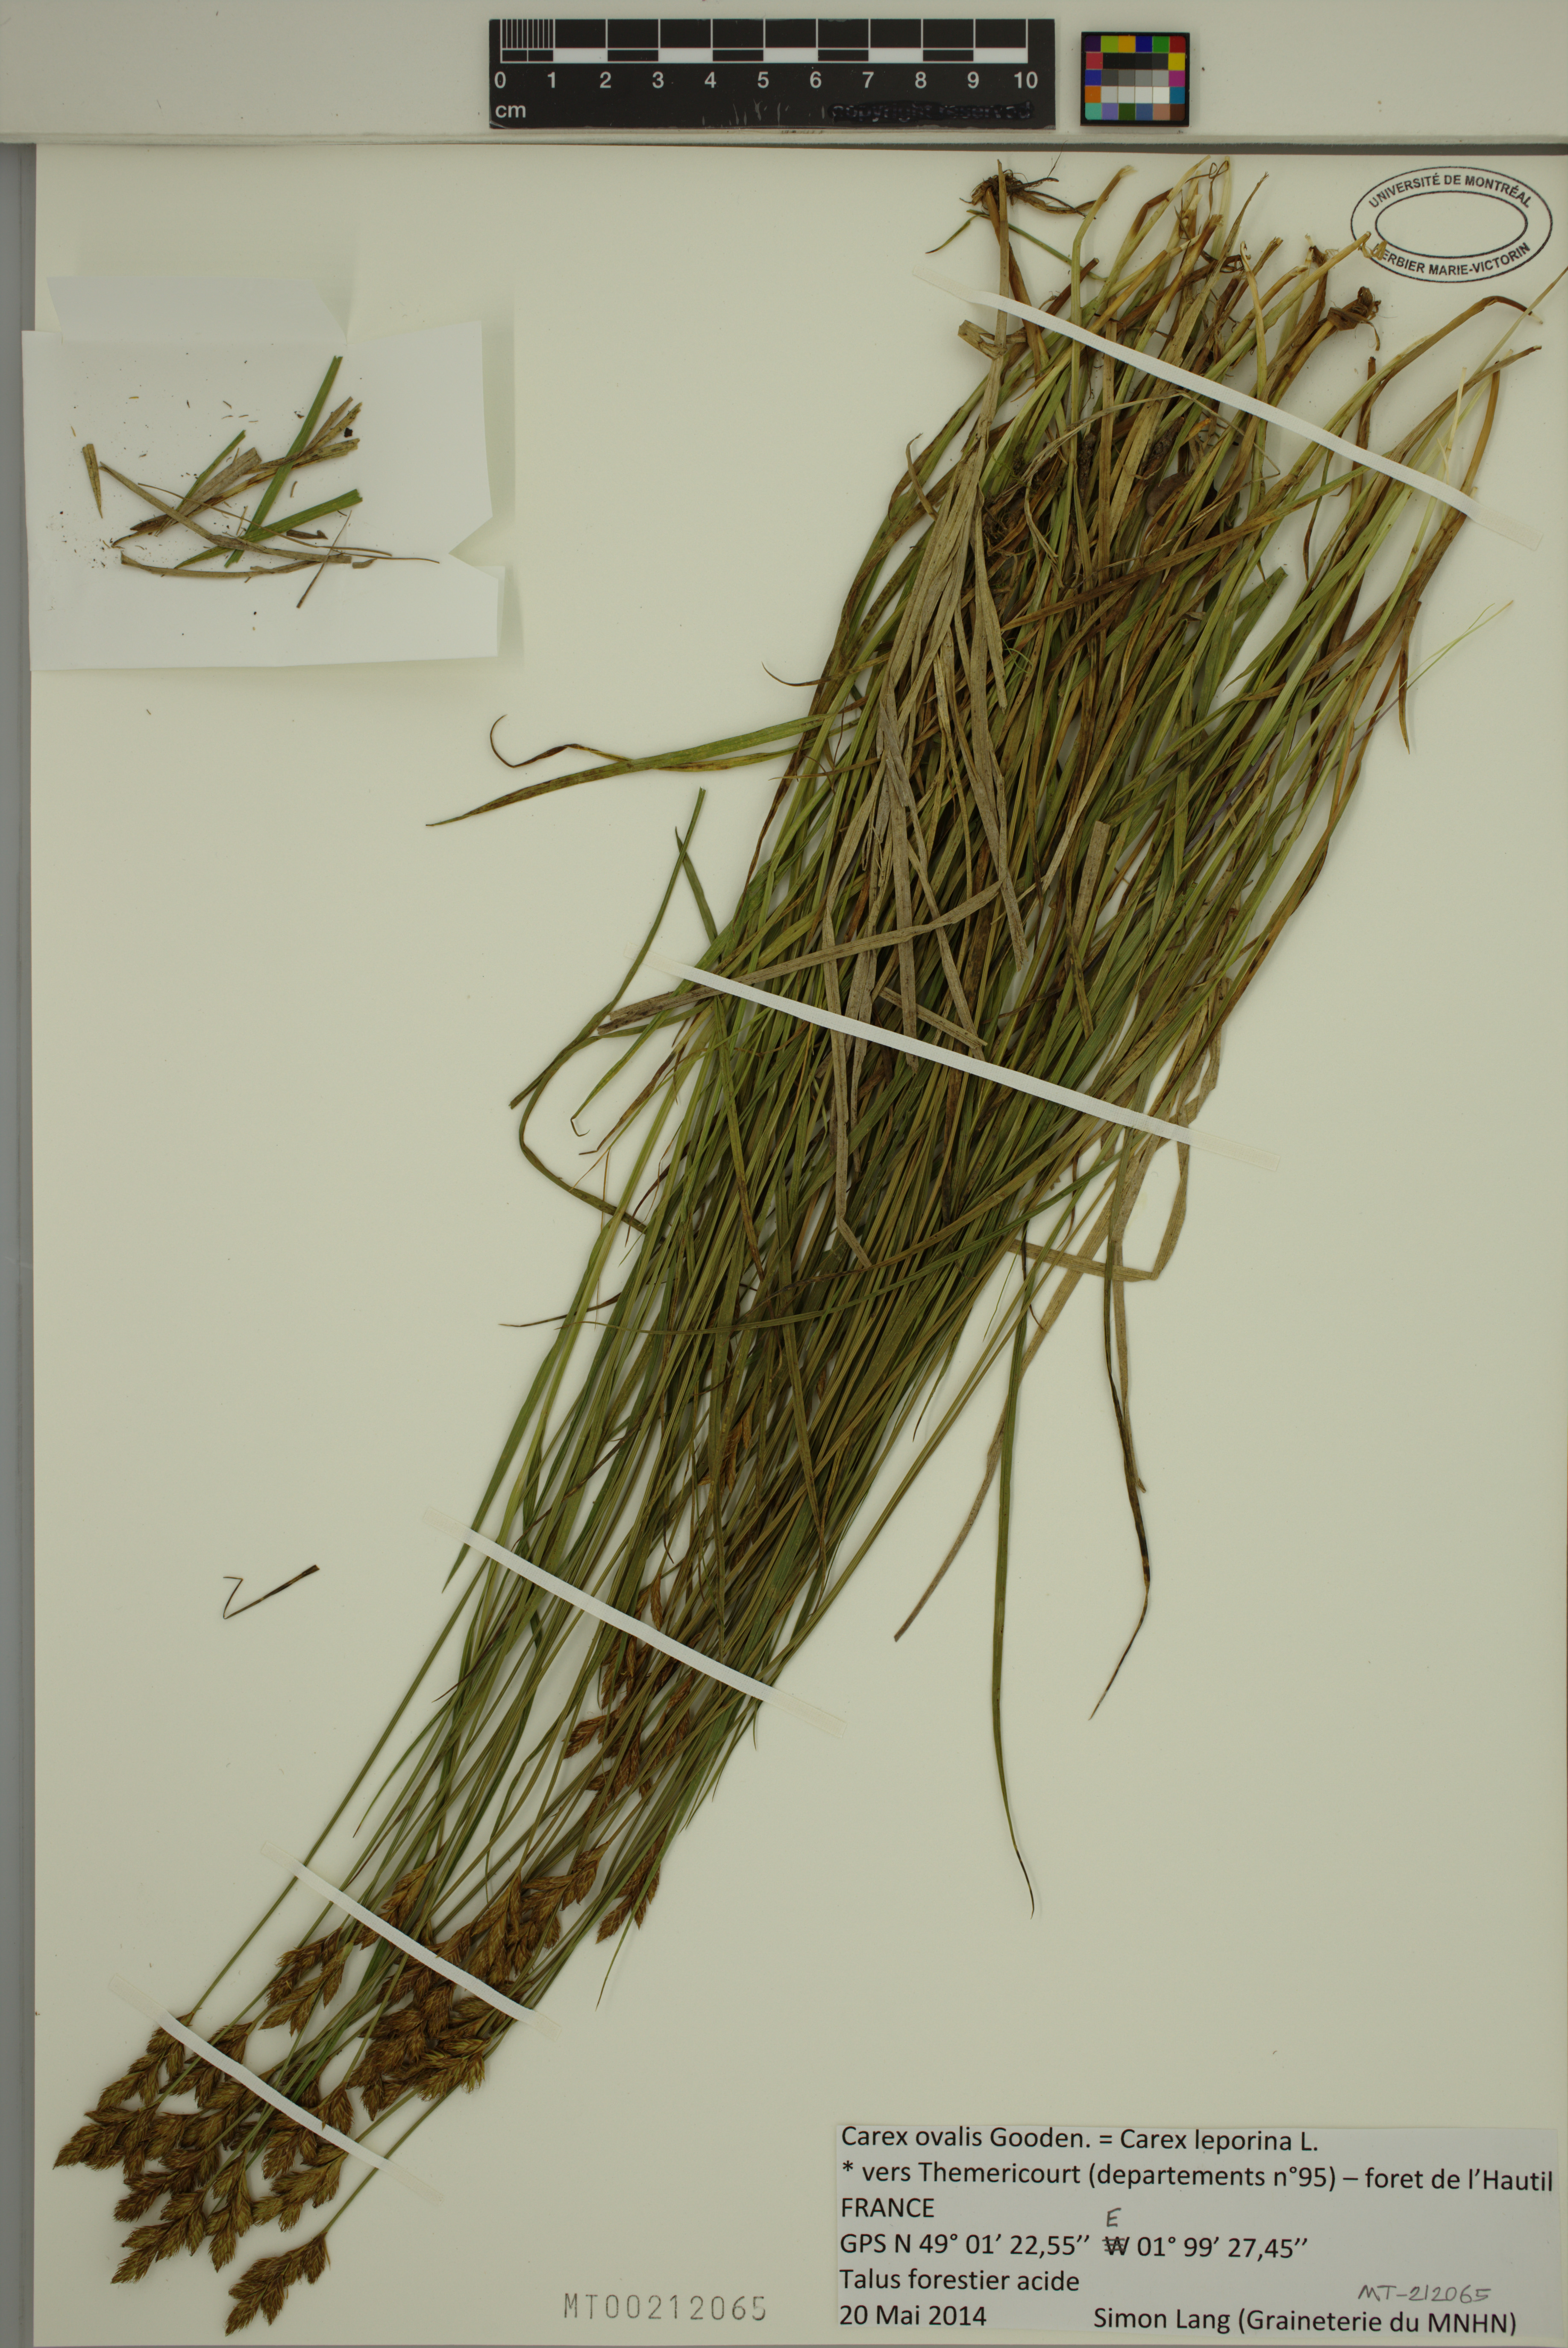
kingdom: Plantae
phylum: Tracheophyta
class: Liliopsida
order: Poales
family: Cyperaceae
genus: Carex
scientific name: Carex leporina
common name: Oval sedge
